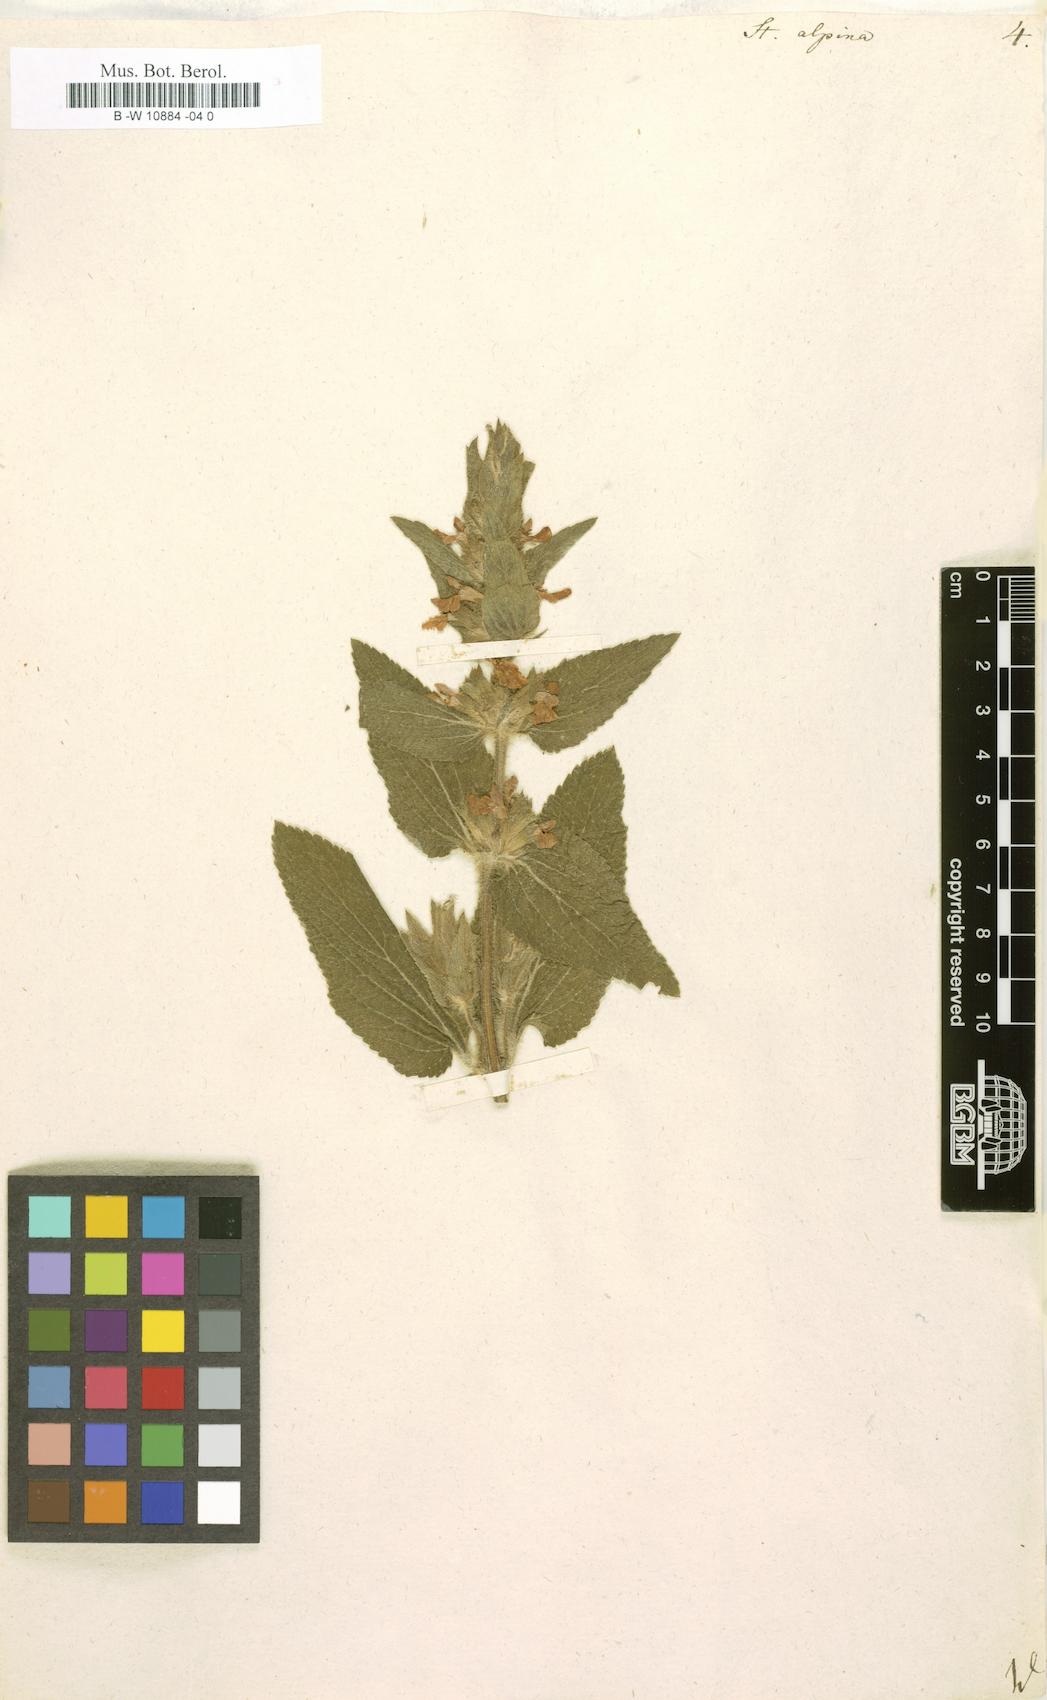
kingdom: Plantae
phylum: Tracheophyta
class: Magnoliopsida
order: Lamiales
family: Lamiaceae
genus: Stachys
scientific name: Stachys alpina
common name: Limestone woundwort
